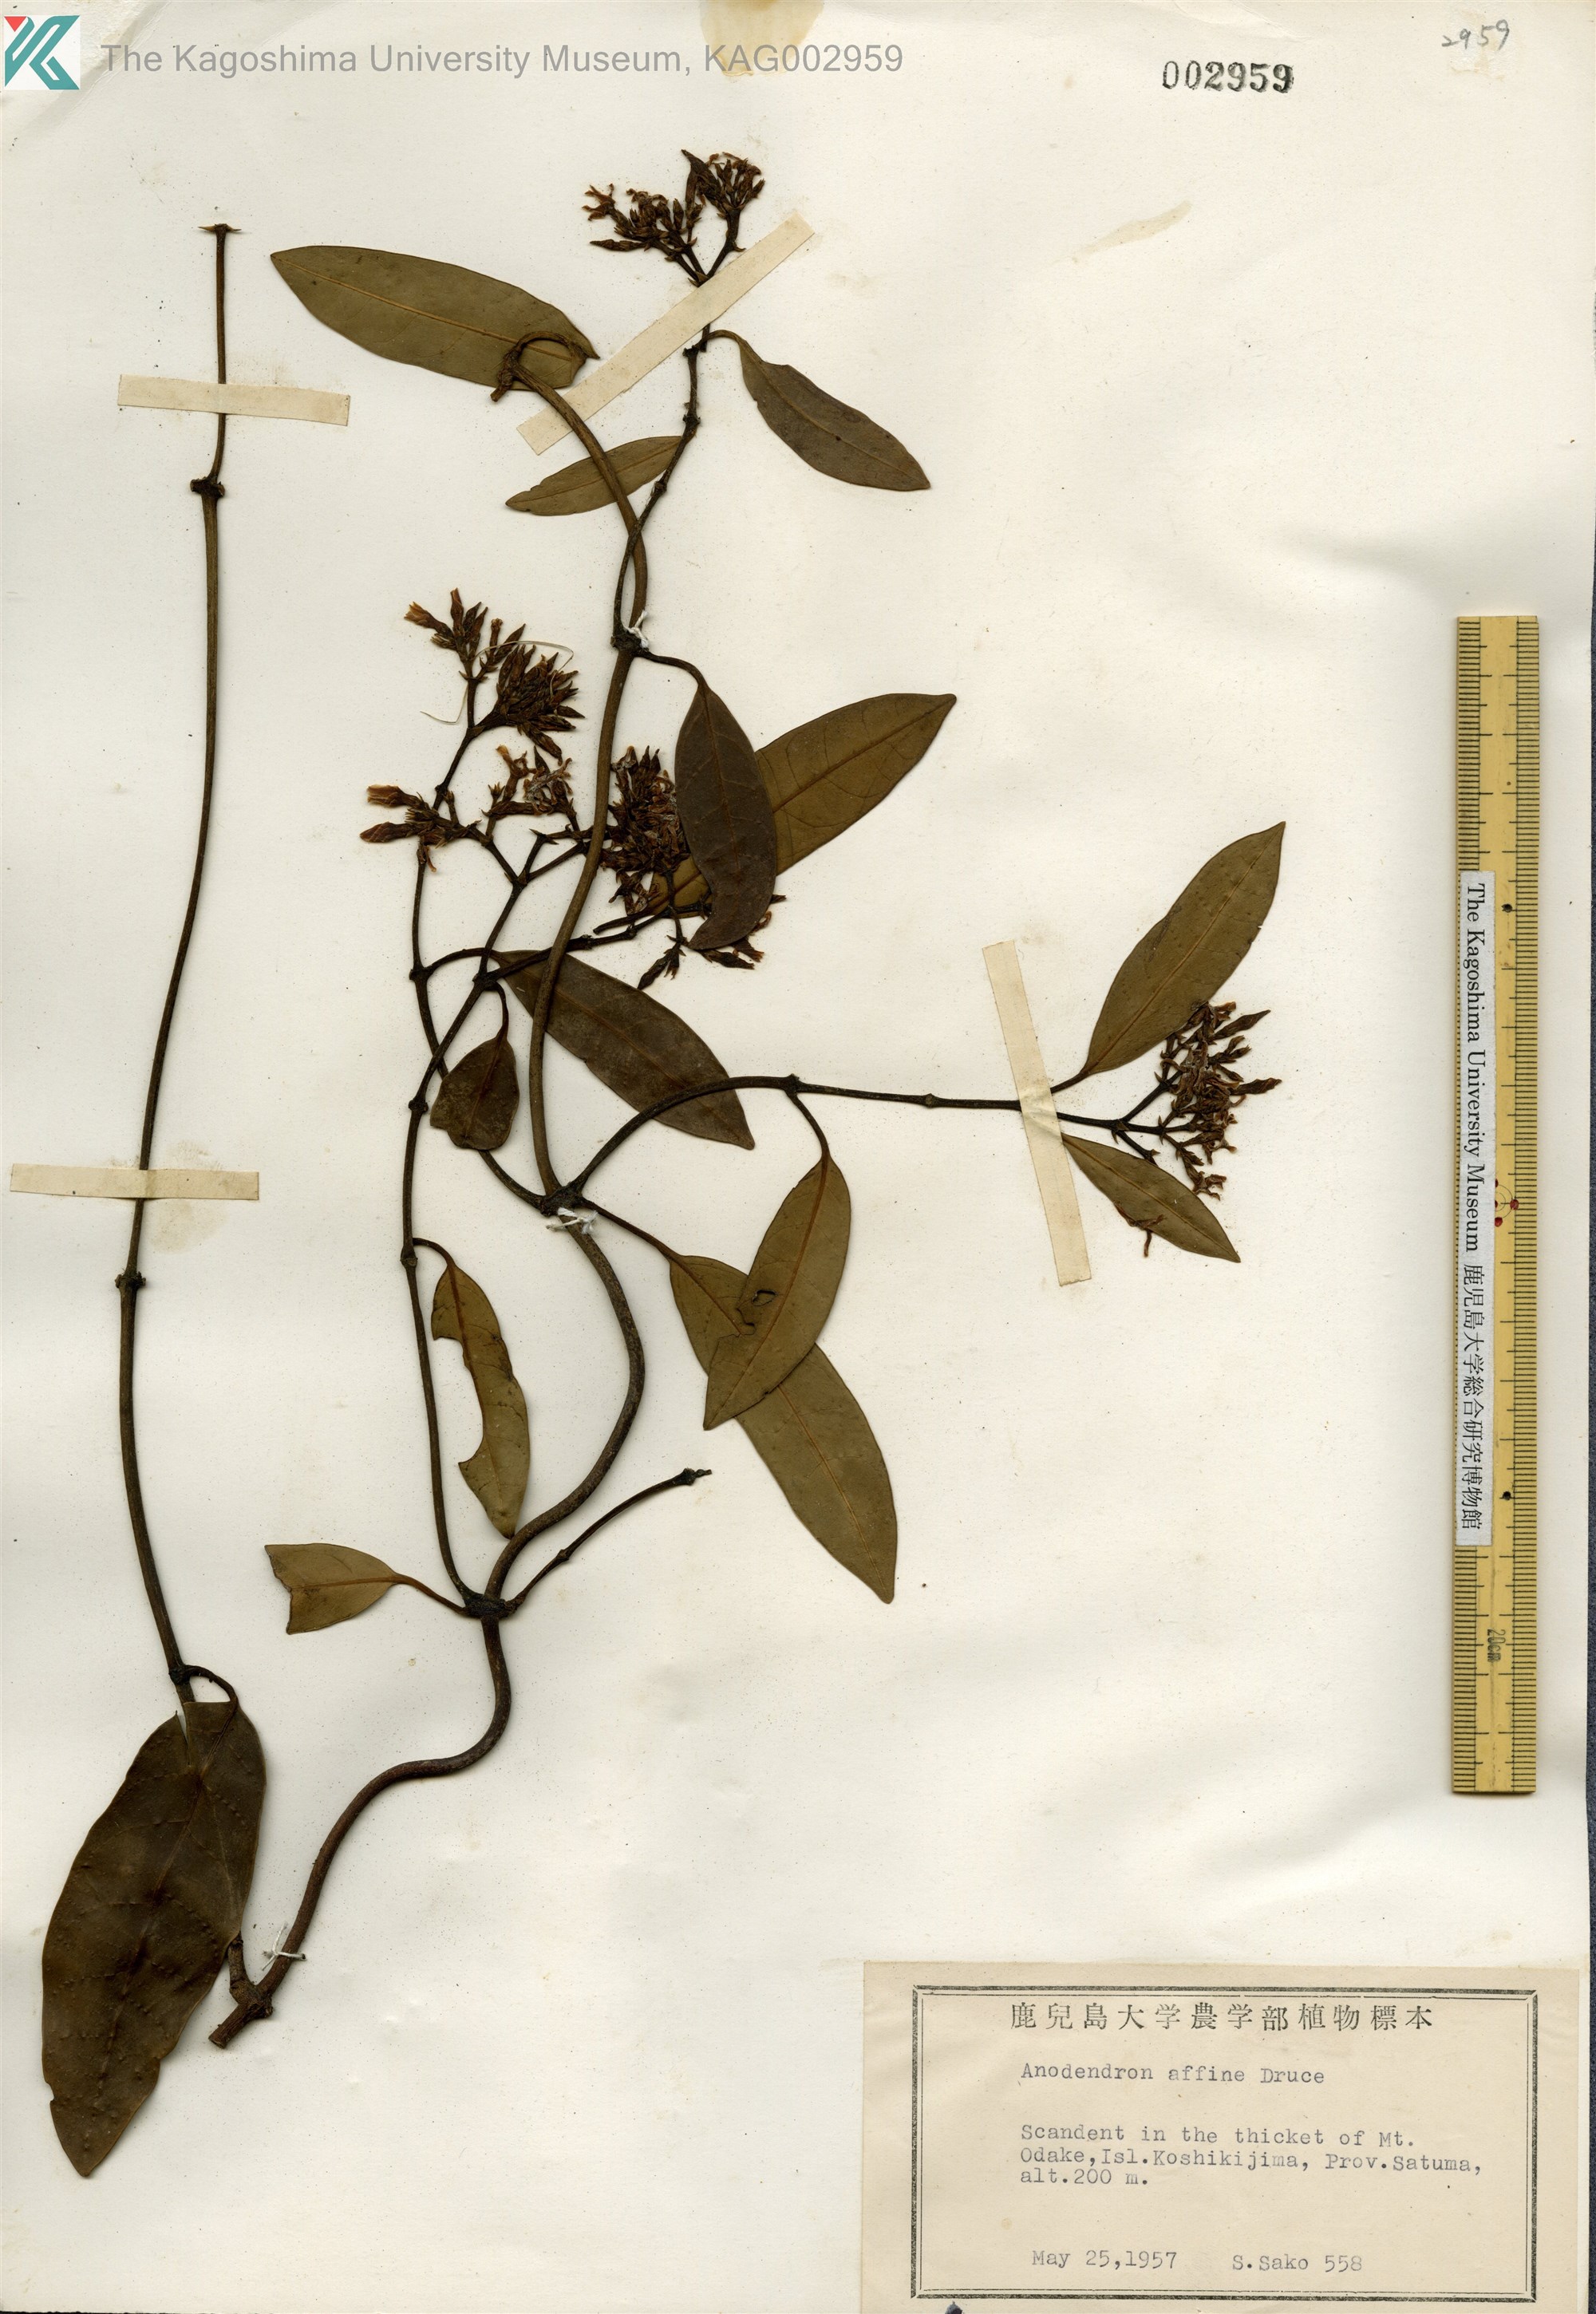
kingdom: Plantae
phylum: Tracheophyta
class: Magnoliopsida
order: Gentianales
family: Apocynaceae
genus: Anodendron
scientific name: Anodendron affine
